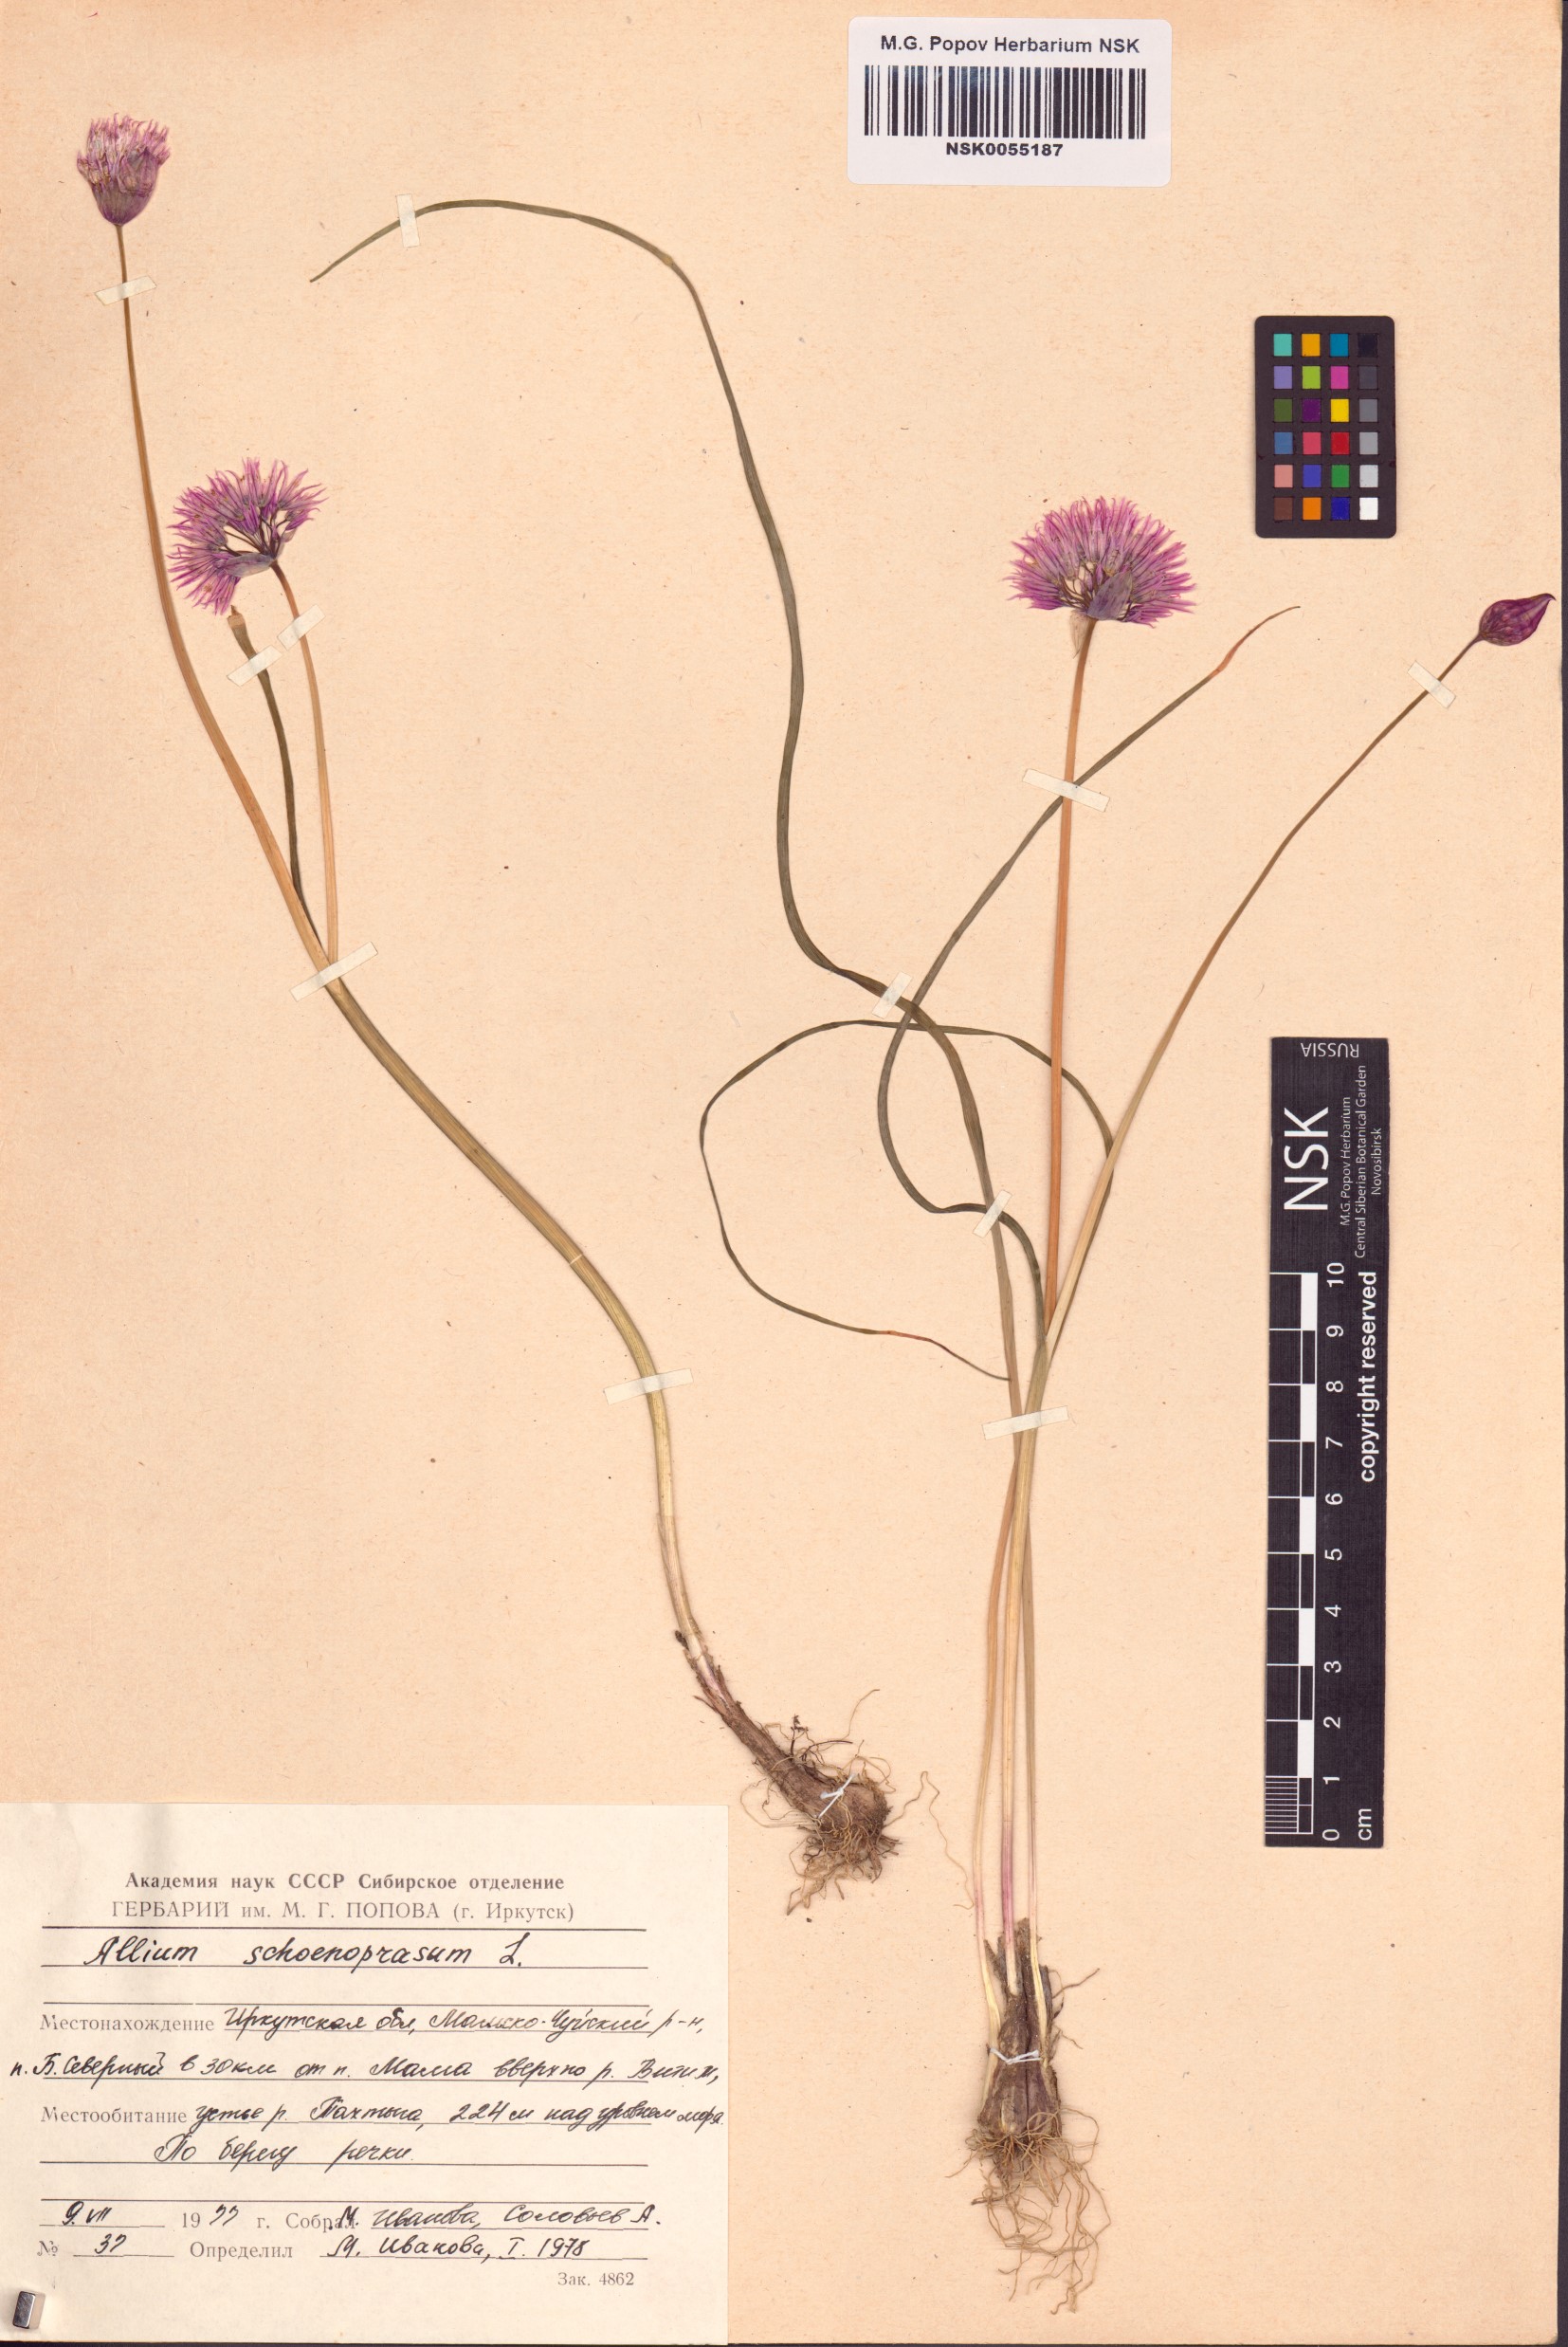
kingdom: Plantae
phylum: Tracheophyta
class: Liliopsida
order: Asparagales
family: Amaryllidaceae
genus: Allium
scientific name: Allium schoenoprasum
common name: Chives
